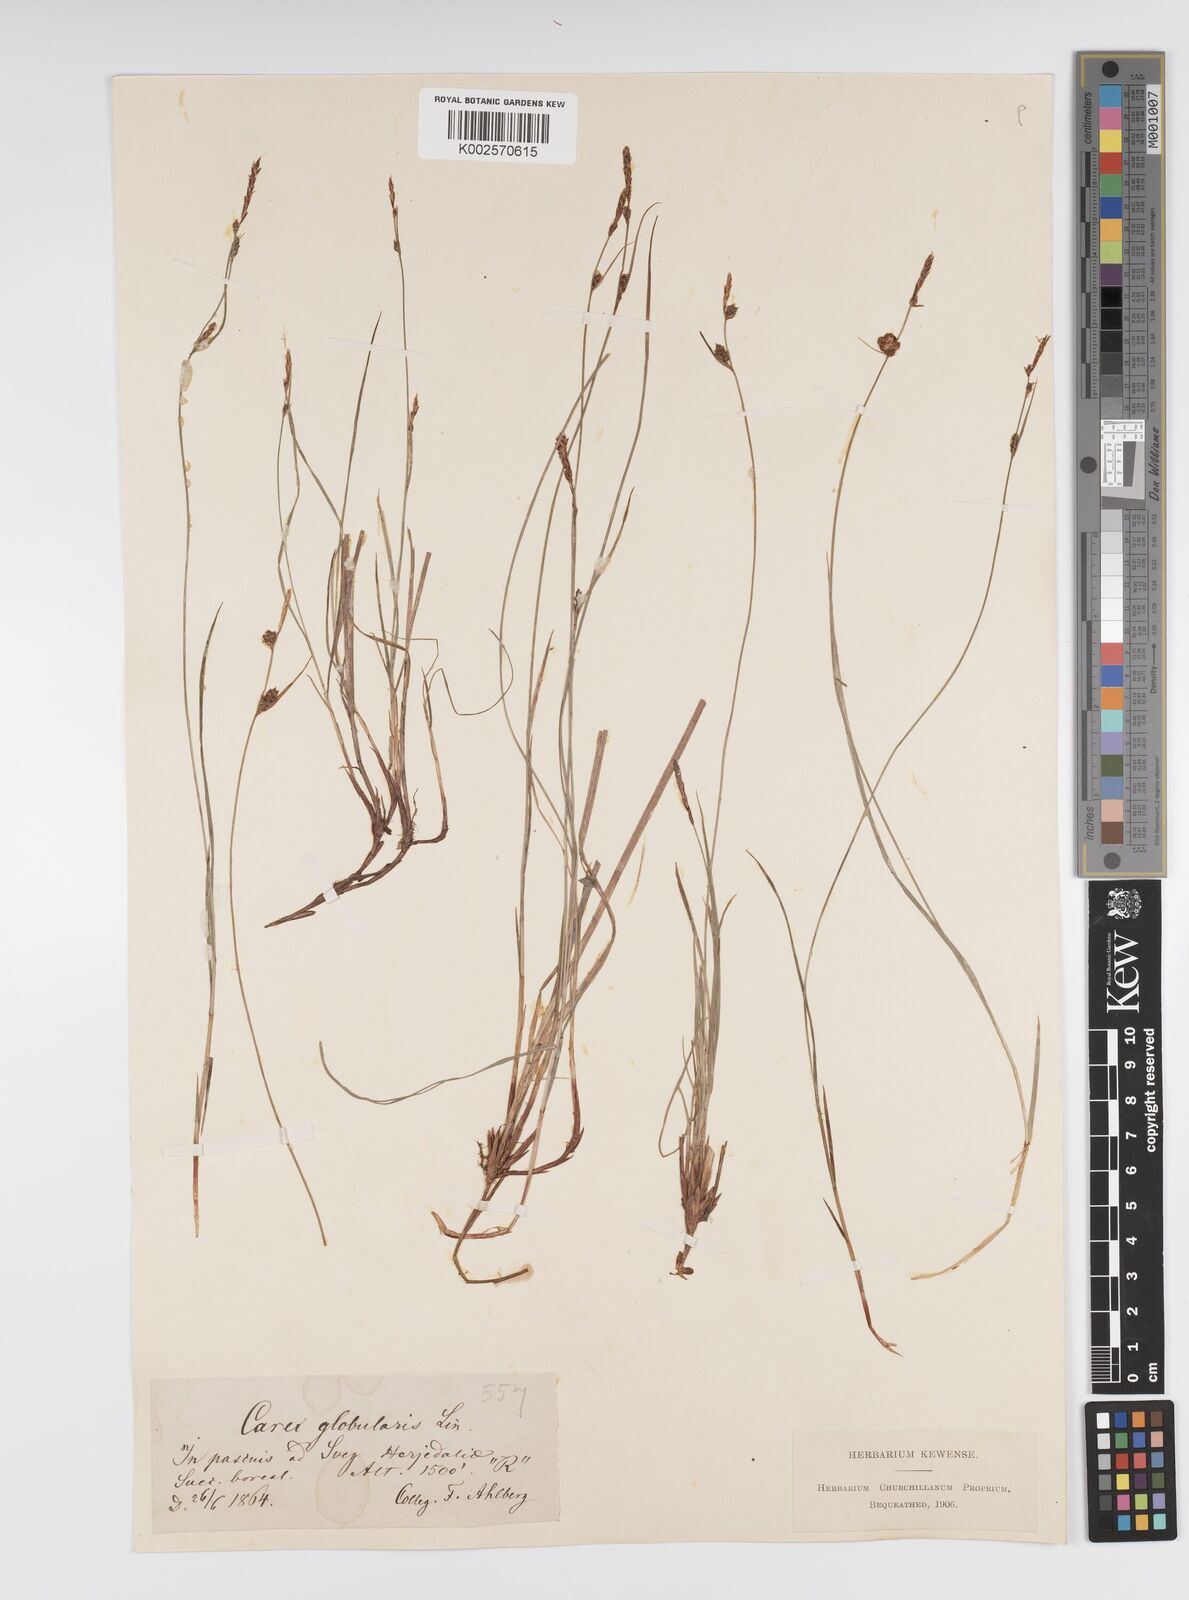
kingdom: Plantae
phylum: Tracheophyta
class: Liliopsida
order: Poales
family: Cyperaceae
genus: Carex
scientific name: Carex globularis
